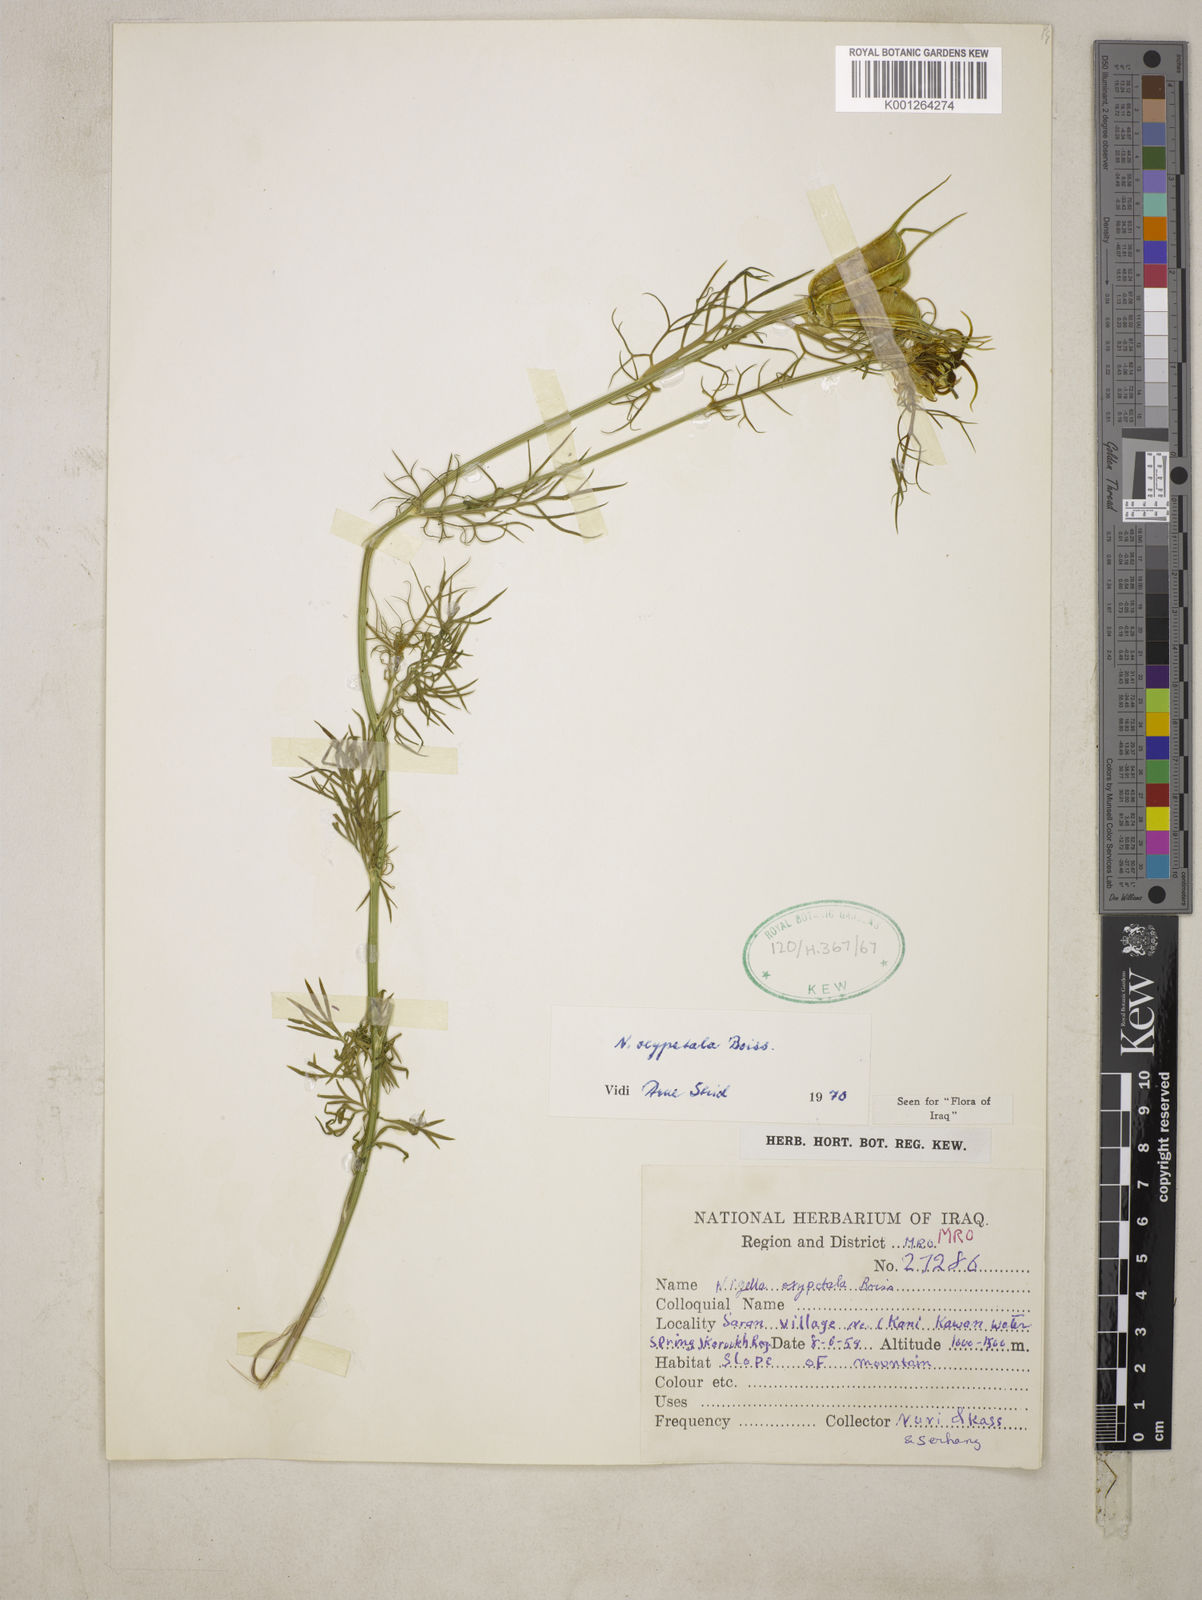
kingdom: Plantae
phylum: Tracheophyta
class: Magnoliopsida
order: Ranunculales
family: Ranunculaceae
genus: Nigella
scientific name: Nigella oxypetala
